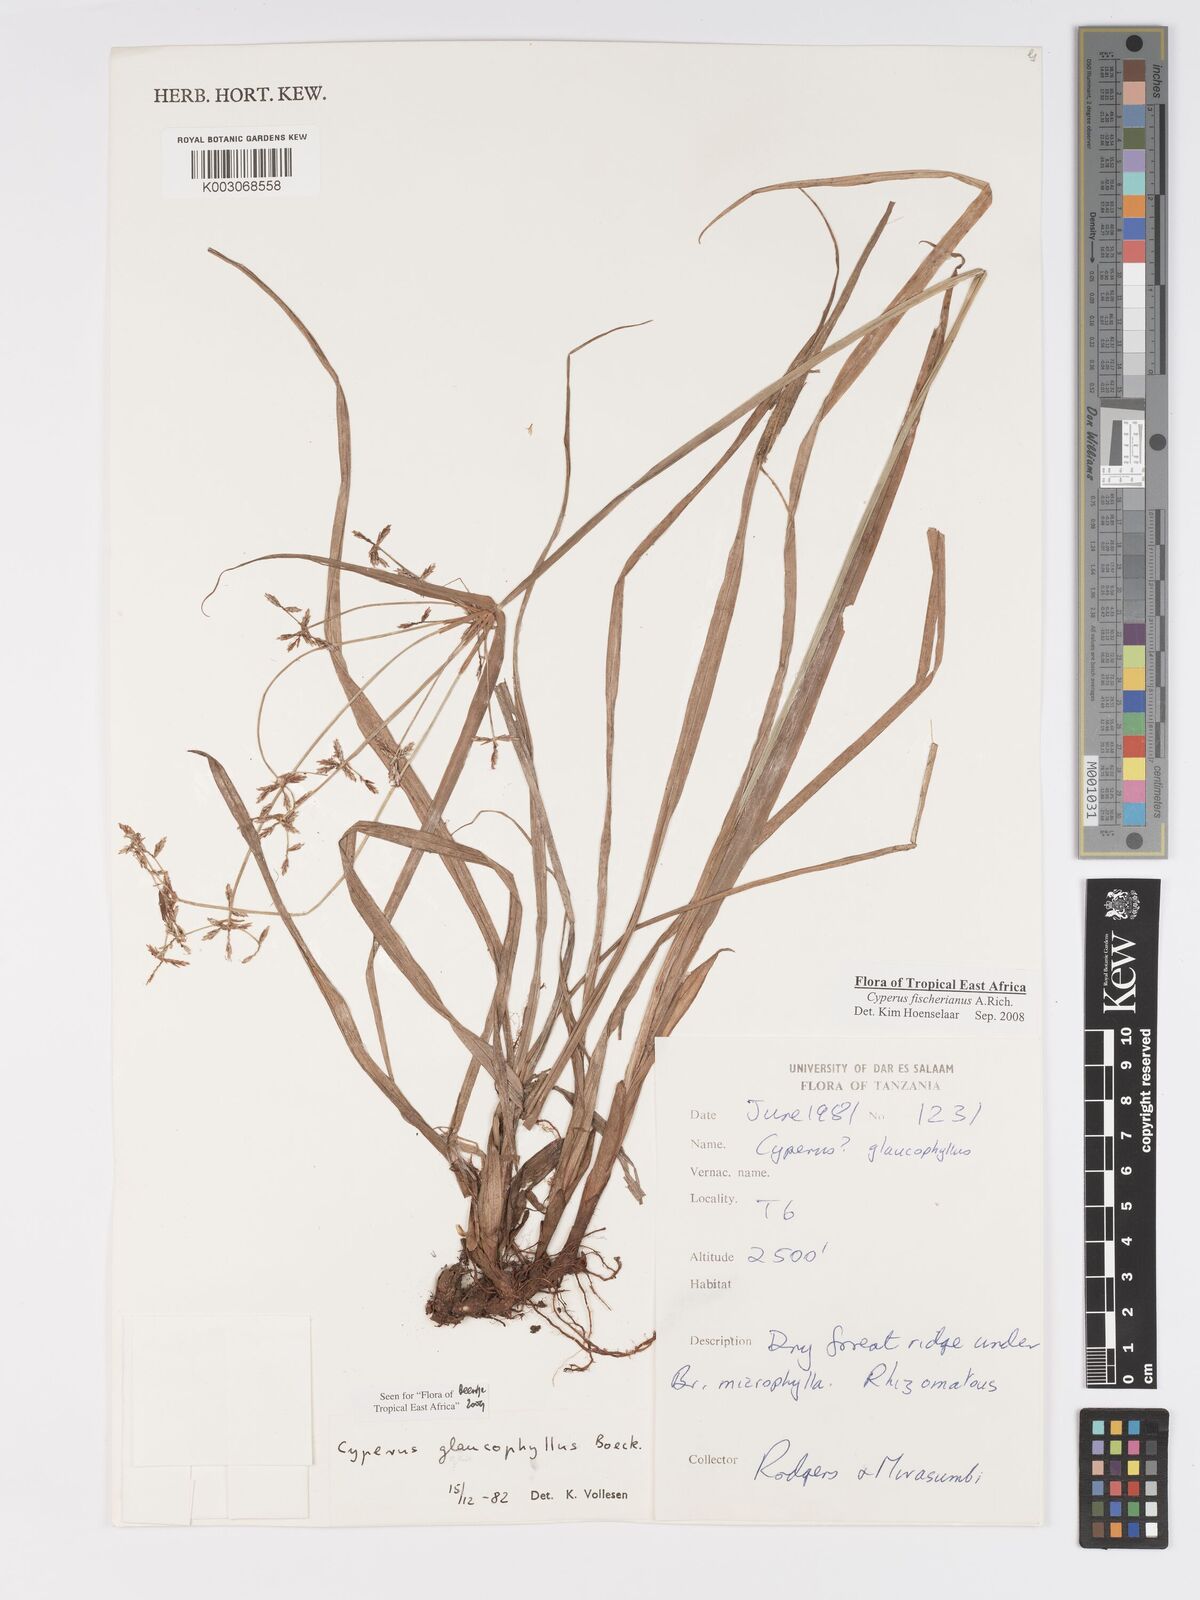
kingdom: Plantae
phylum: Tracheophyta
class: Liliopsida
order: Poales
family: Cyperaceae
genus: Cyperus
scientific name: Cyperus fischerianus
